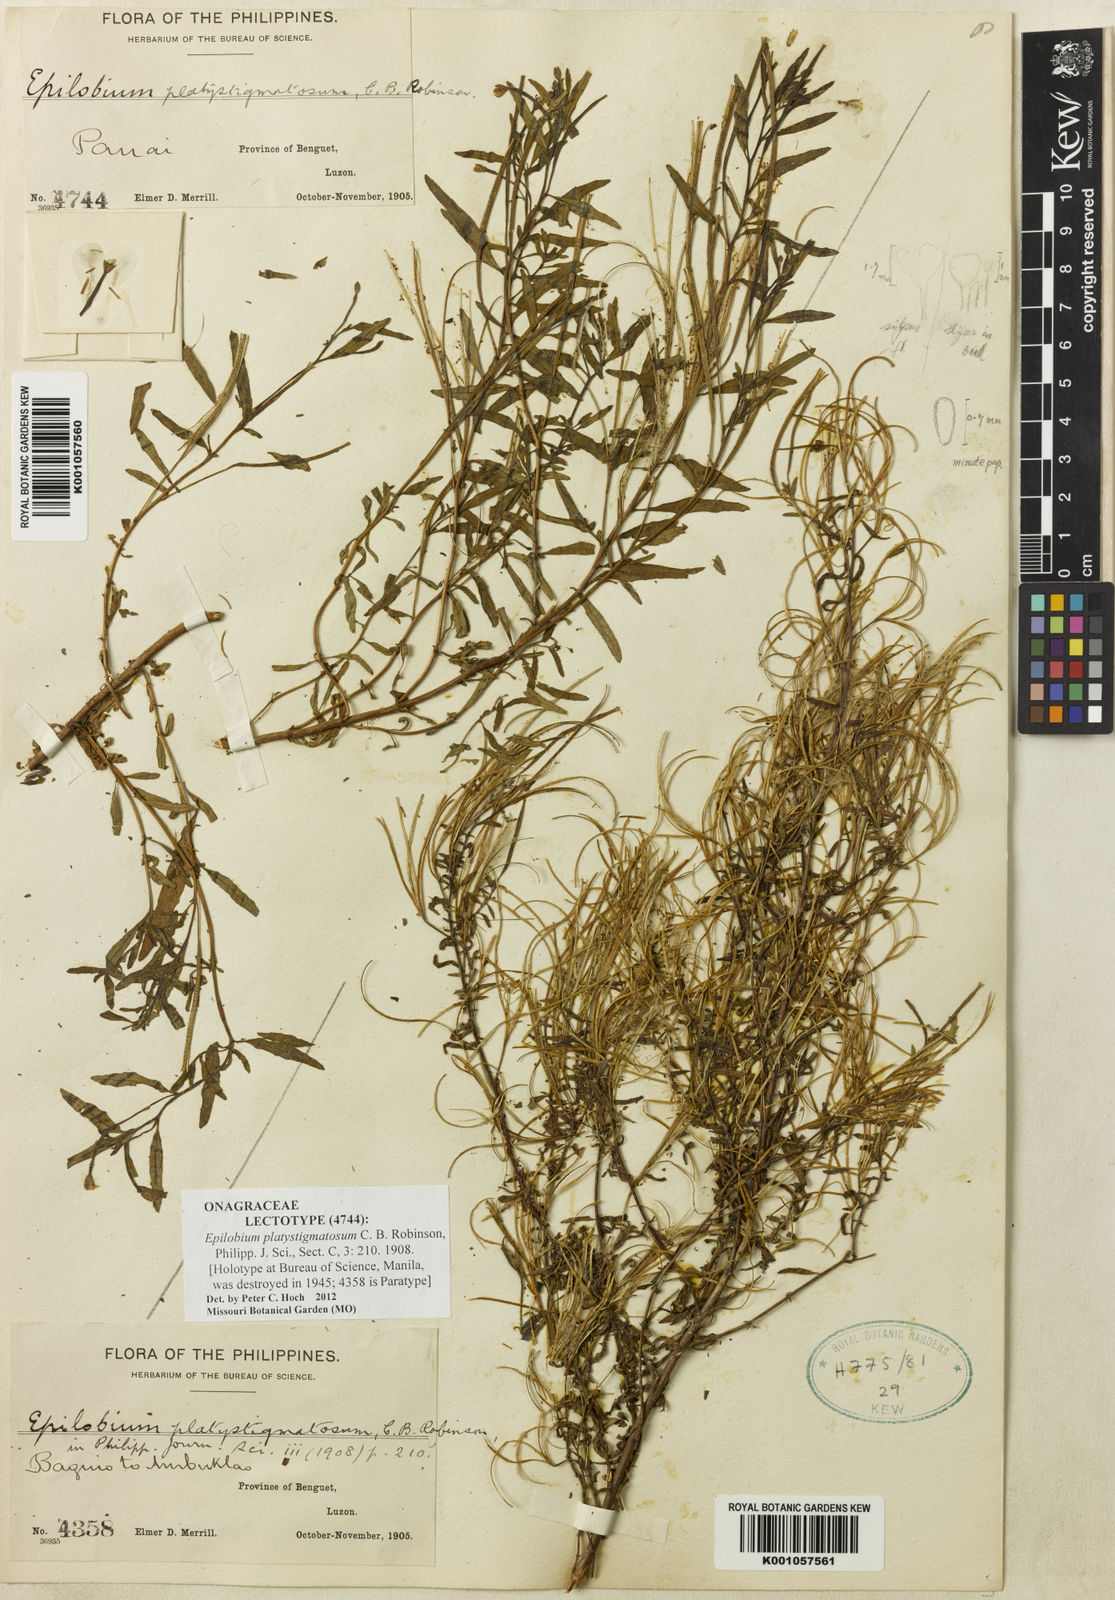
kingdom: Plantae
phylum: Tracheophyta
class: Magnoliopsida
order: Myrtales
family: Onagraceae
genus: Epilobium
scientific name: Epilobium platystigmatosum
